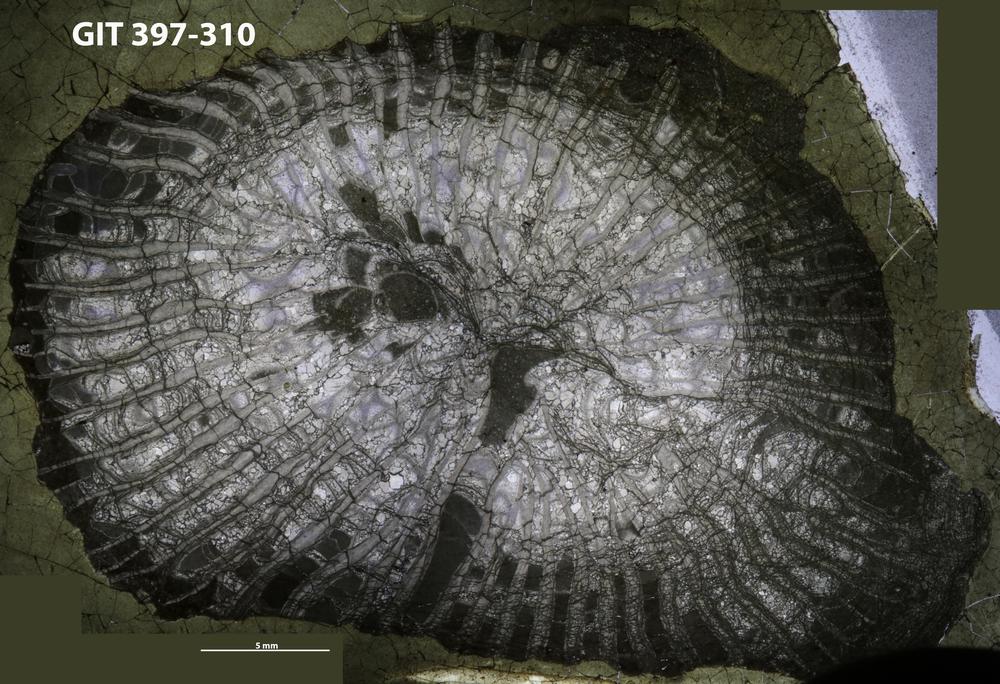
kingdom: Animalia
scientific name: Animalia
